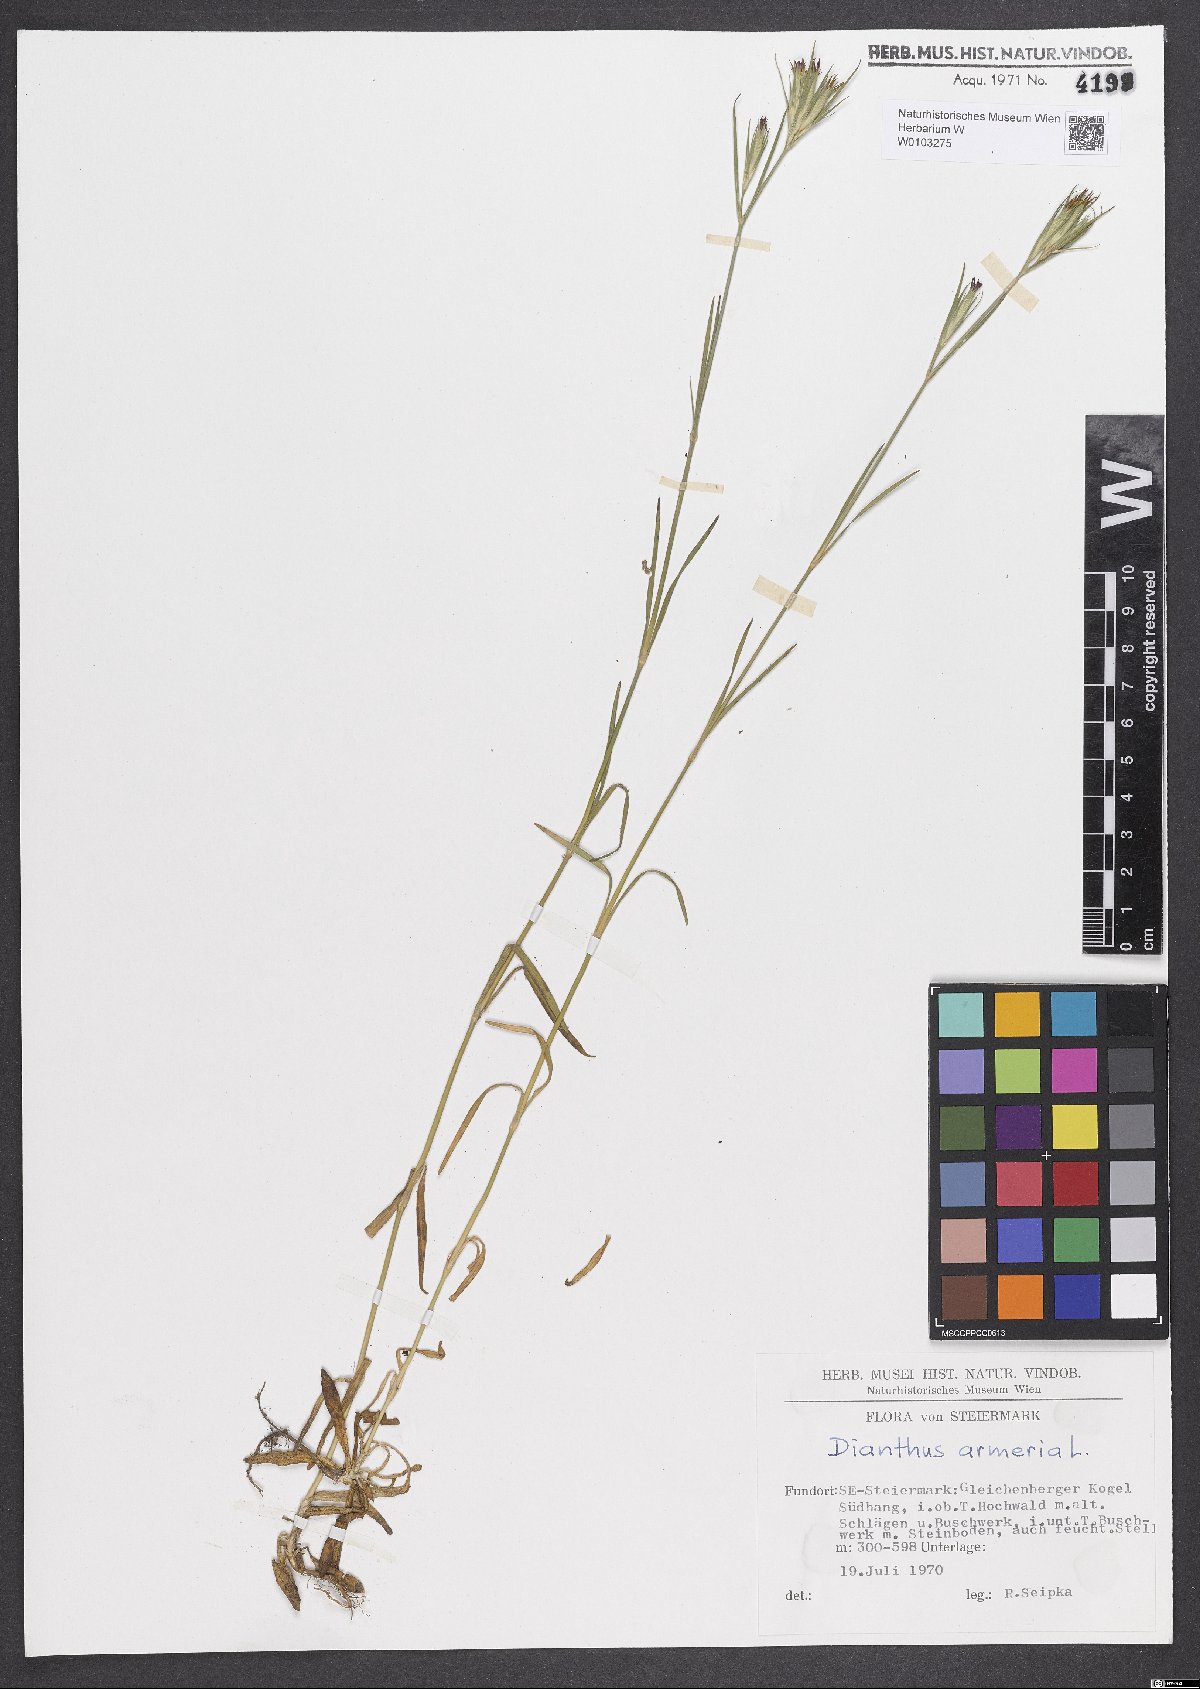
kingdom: Plantae
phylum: Tracheophyta
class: Magnoliopsida
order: Caryophyllales
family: Caryophyllaceae
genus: Dianthus
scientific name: Dianthus armeria
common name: Deptford pink
